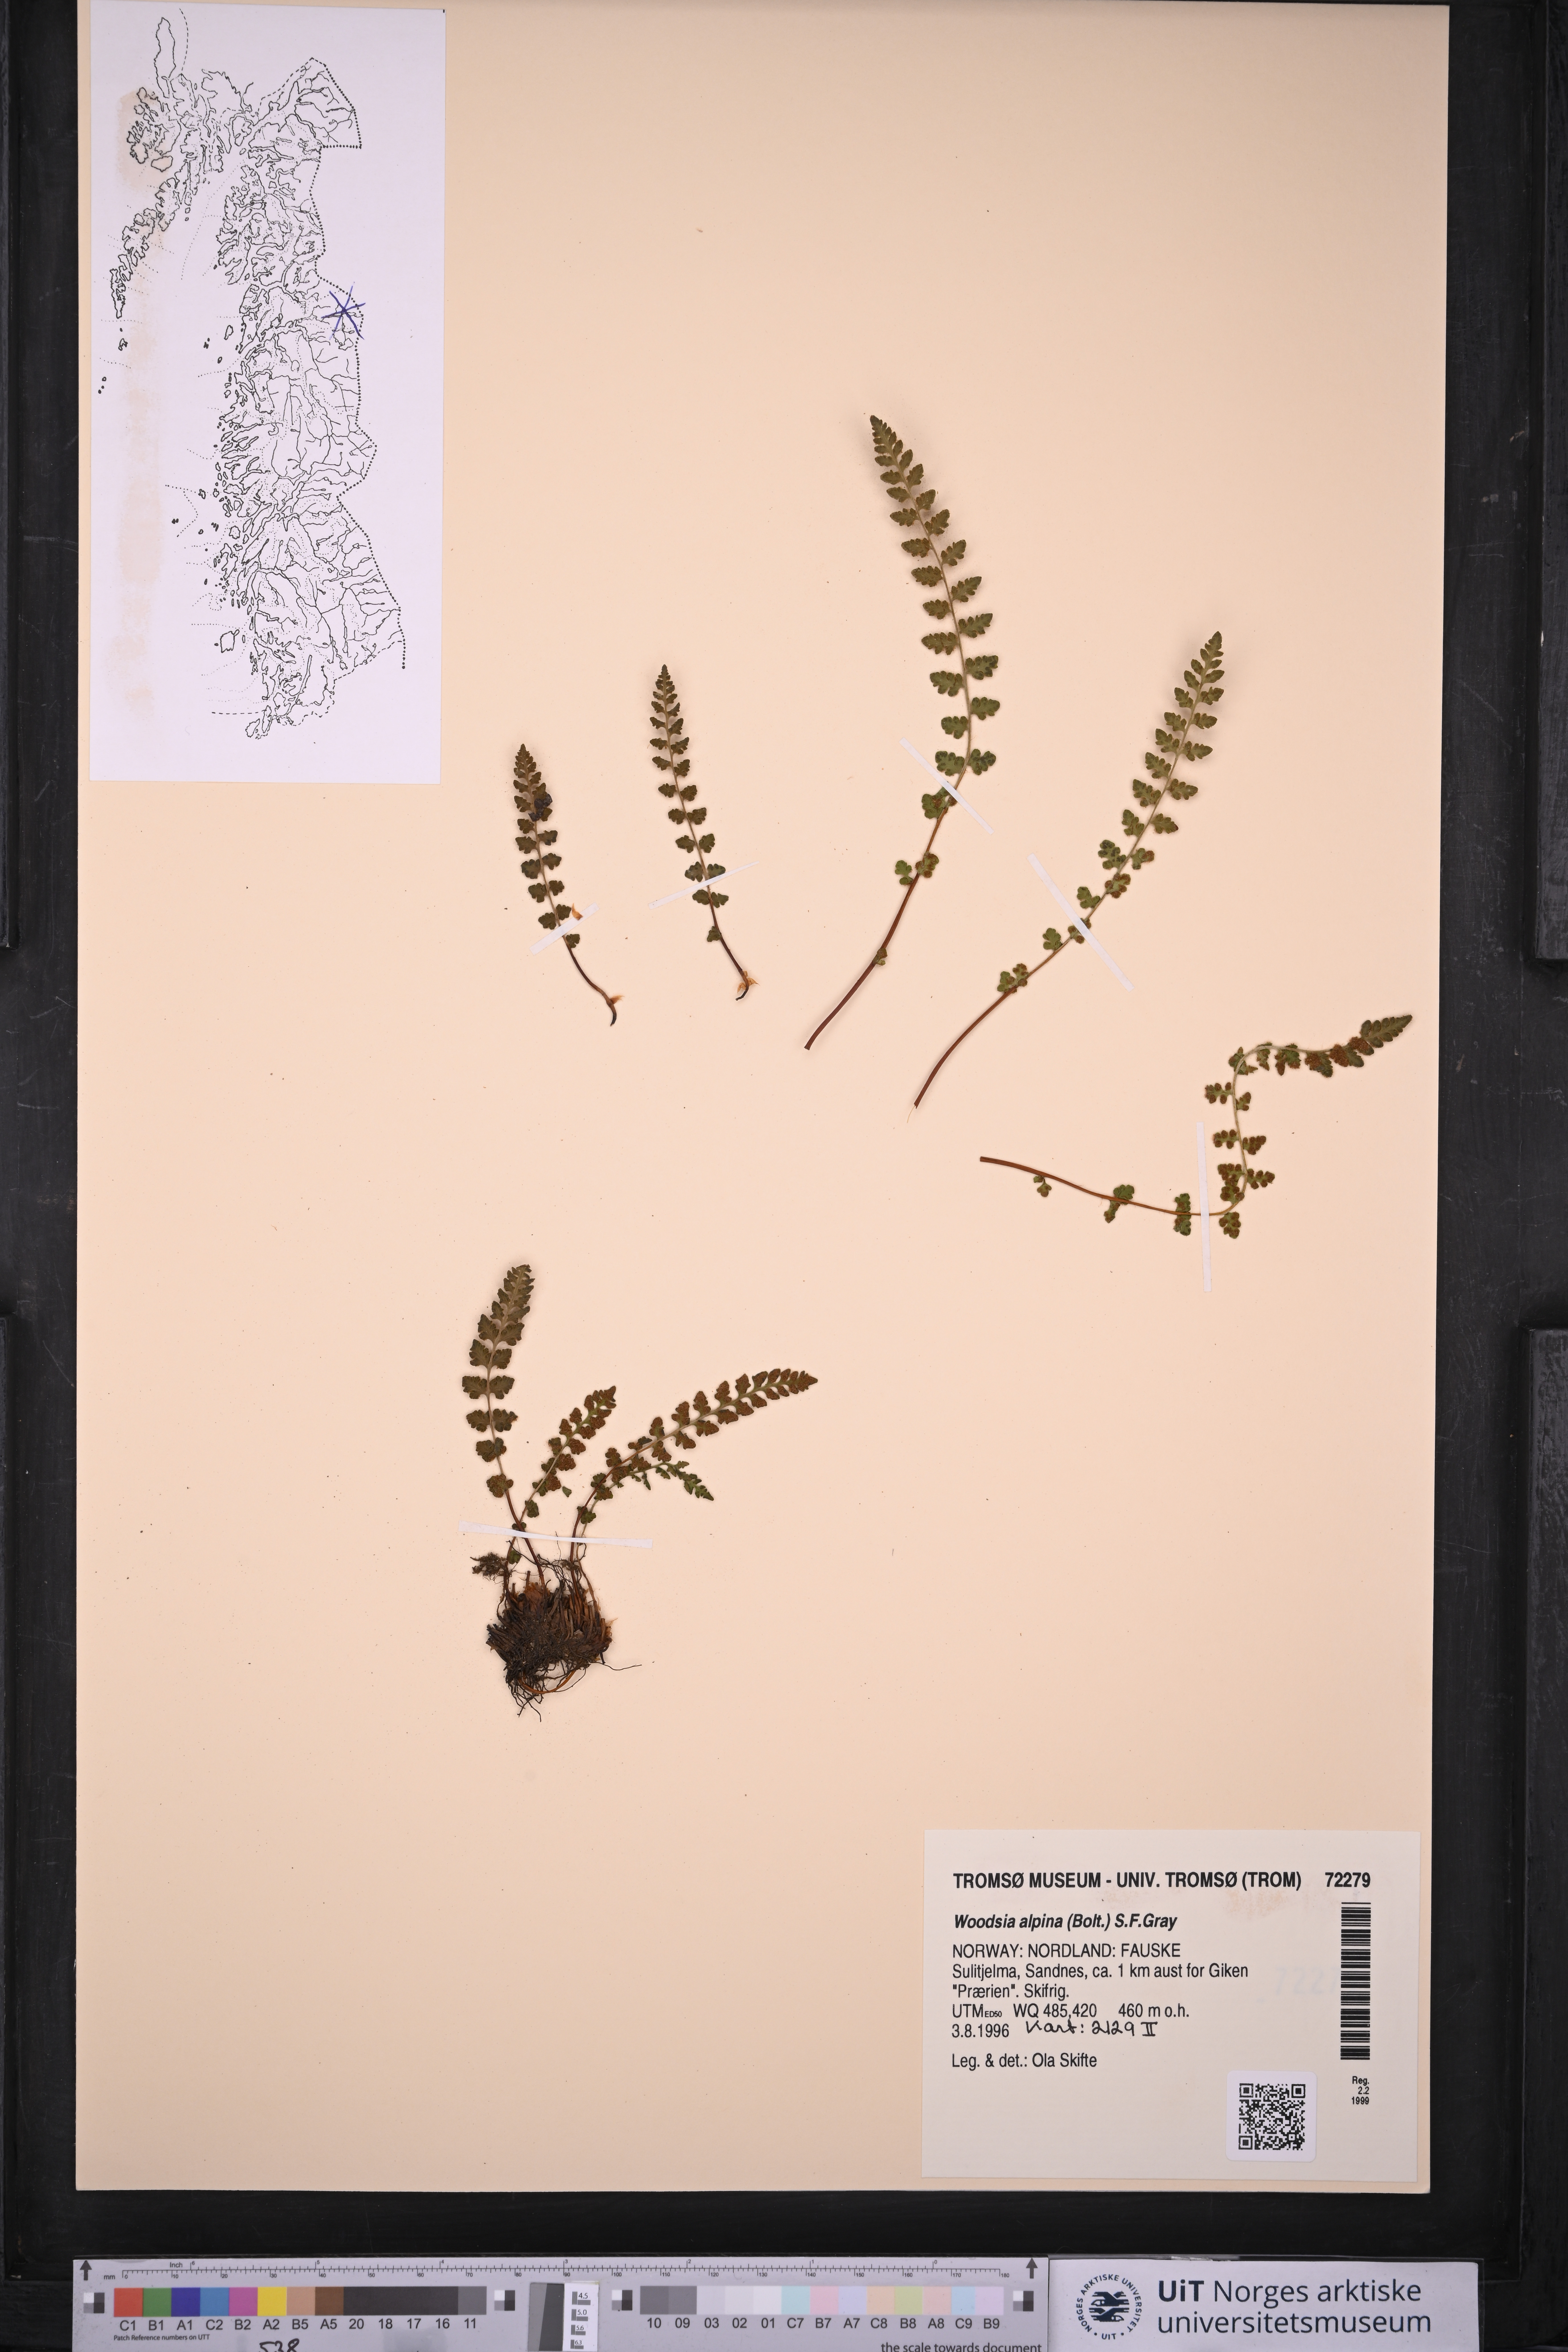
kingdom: Plantae
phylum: Tracheophyta
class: Polypodiopsida
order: Polypodiales
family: Woodsiaceae
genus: Woodsia
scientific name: Woodsia alpina
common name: Alpine woodsia
